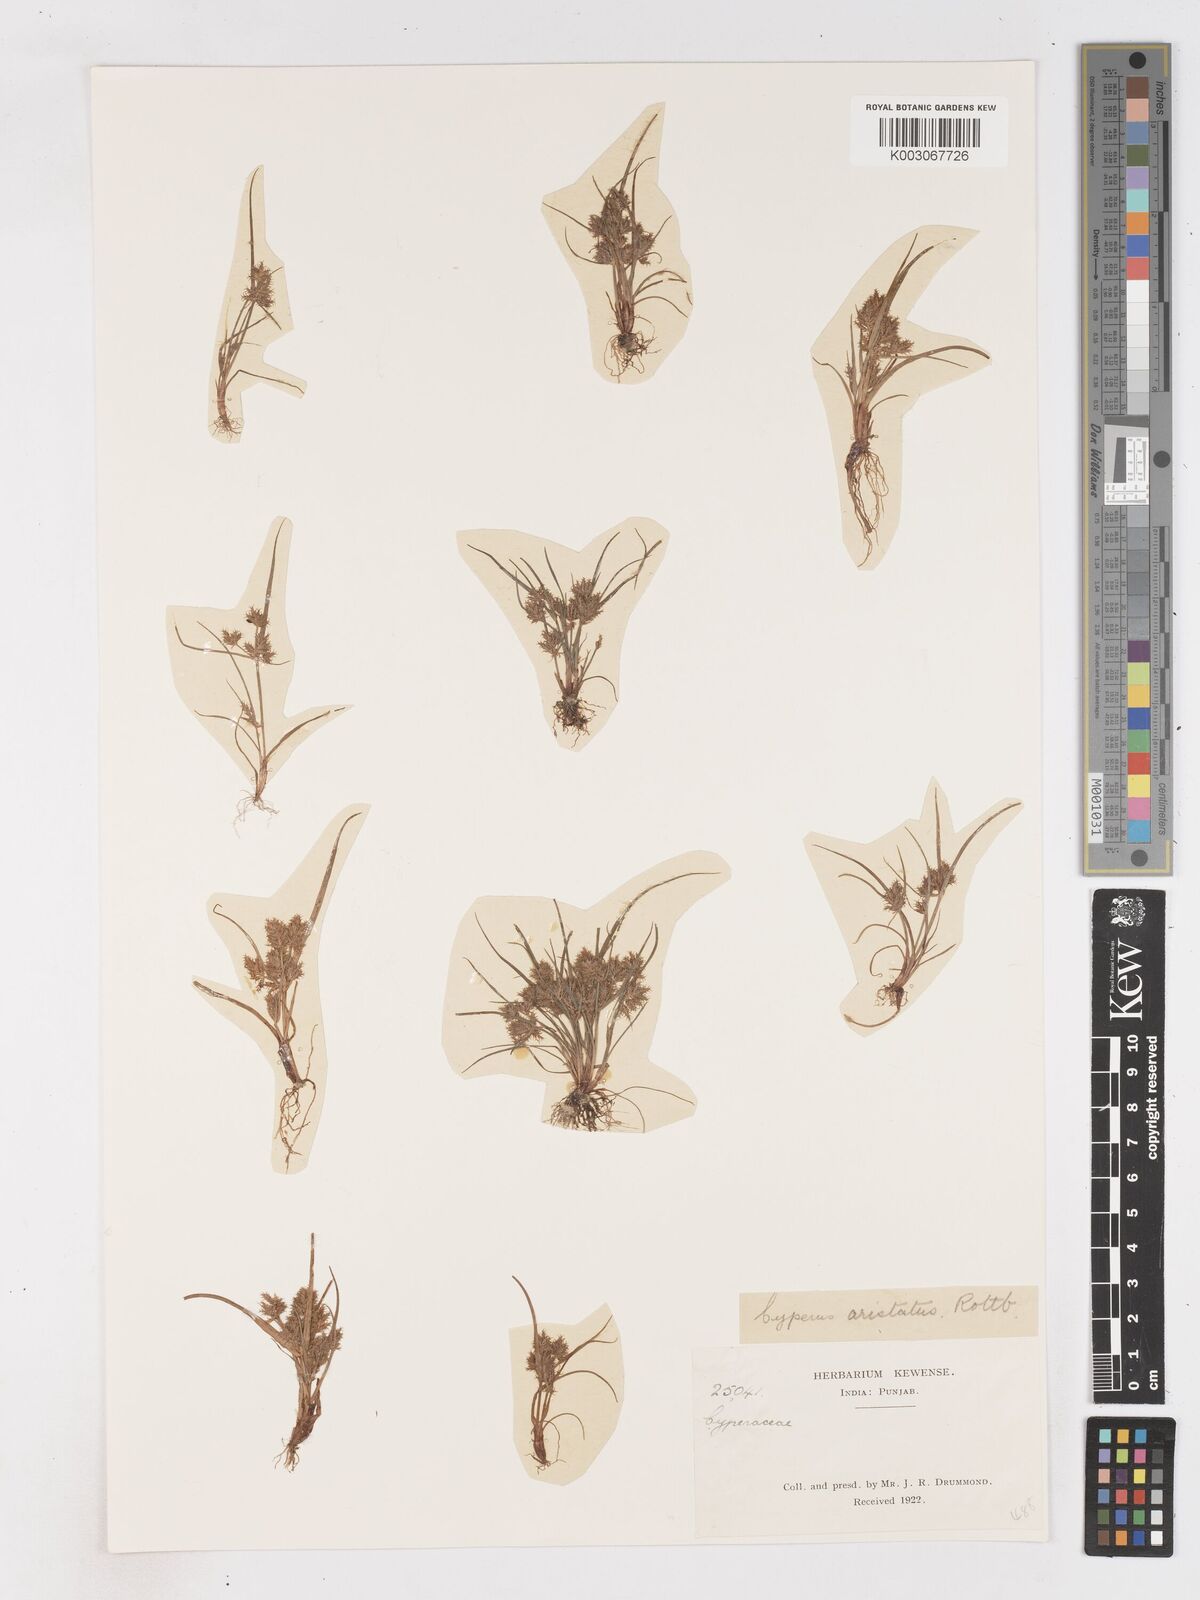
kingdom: Plantae
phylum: Tracheophyta
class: Liliopsida
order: Poales
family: Cyperaceae
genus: Cyperus
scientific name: Cyperus squarrosus
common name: Awned cyperus
